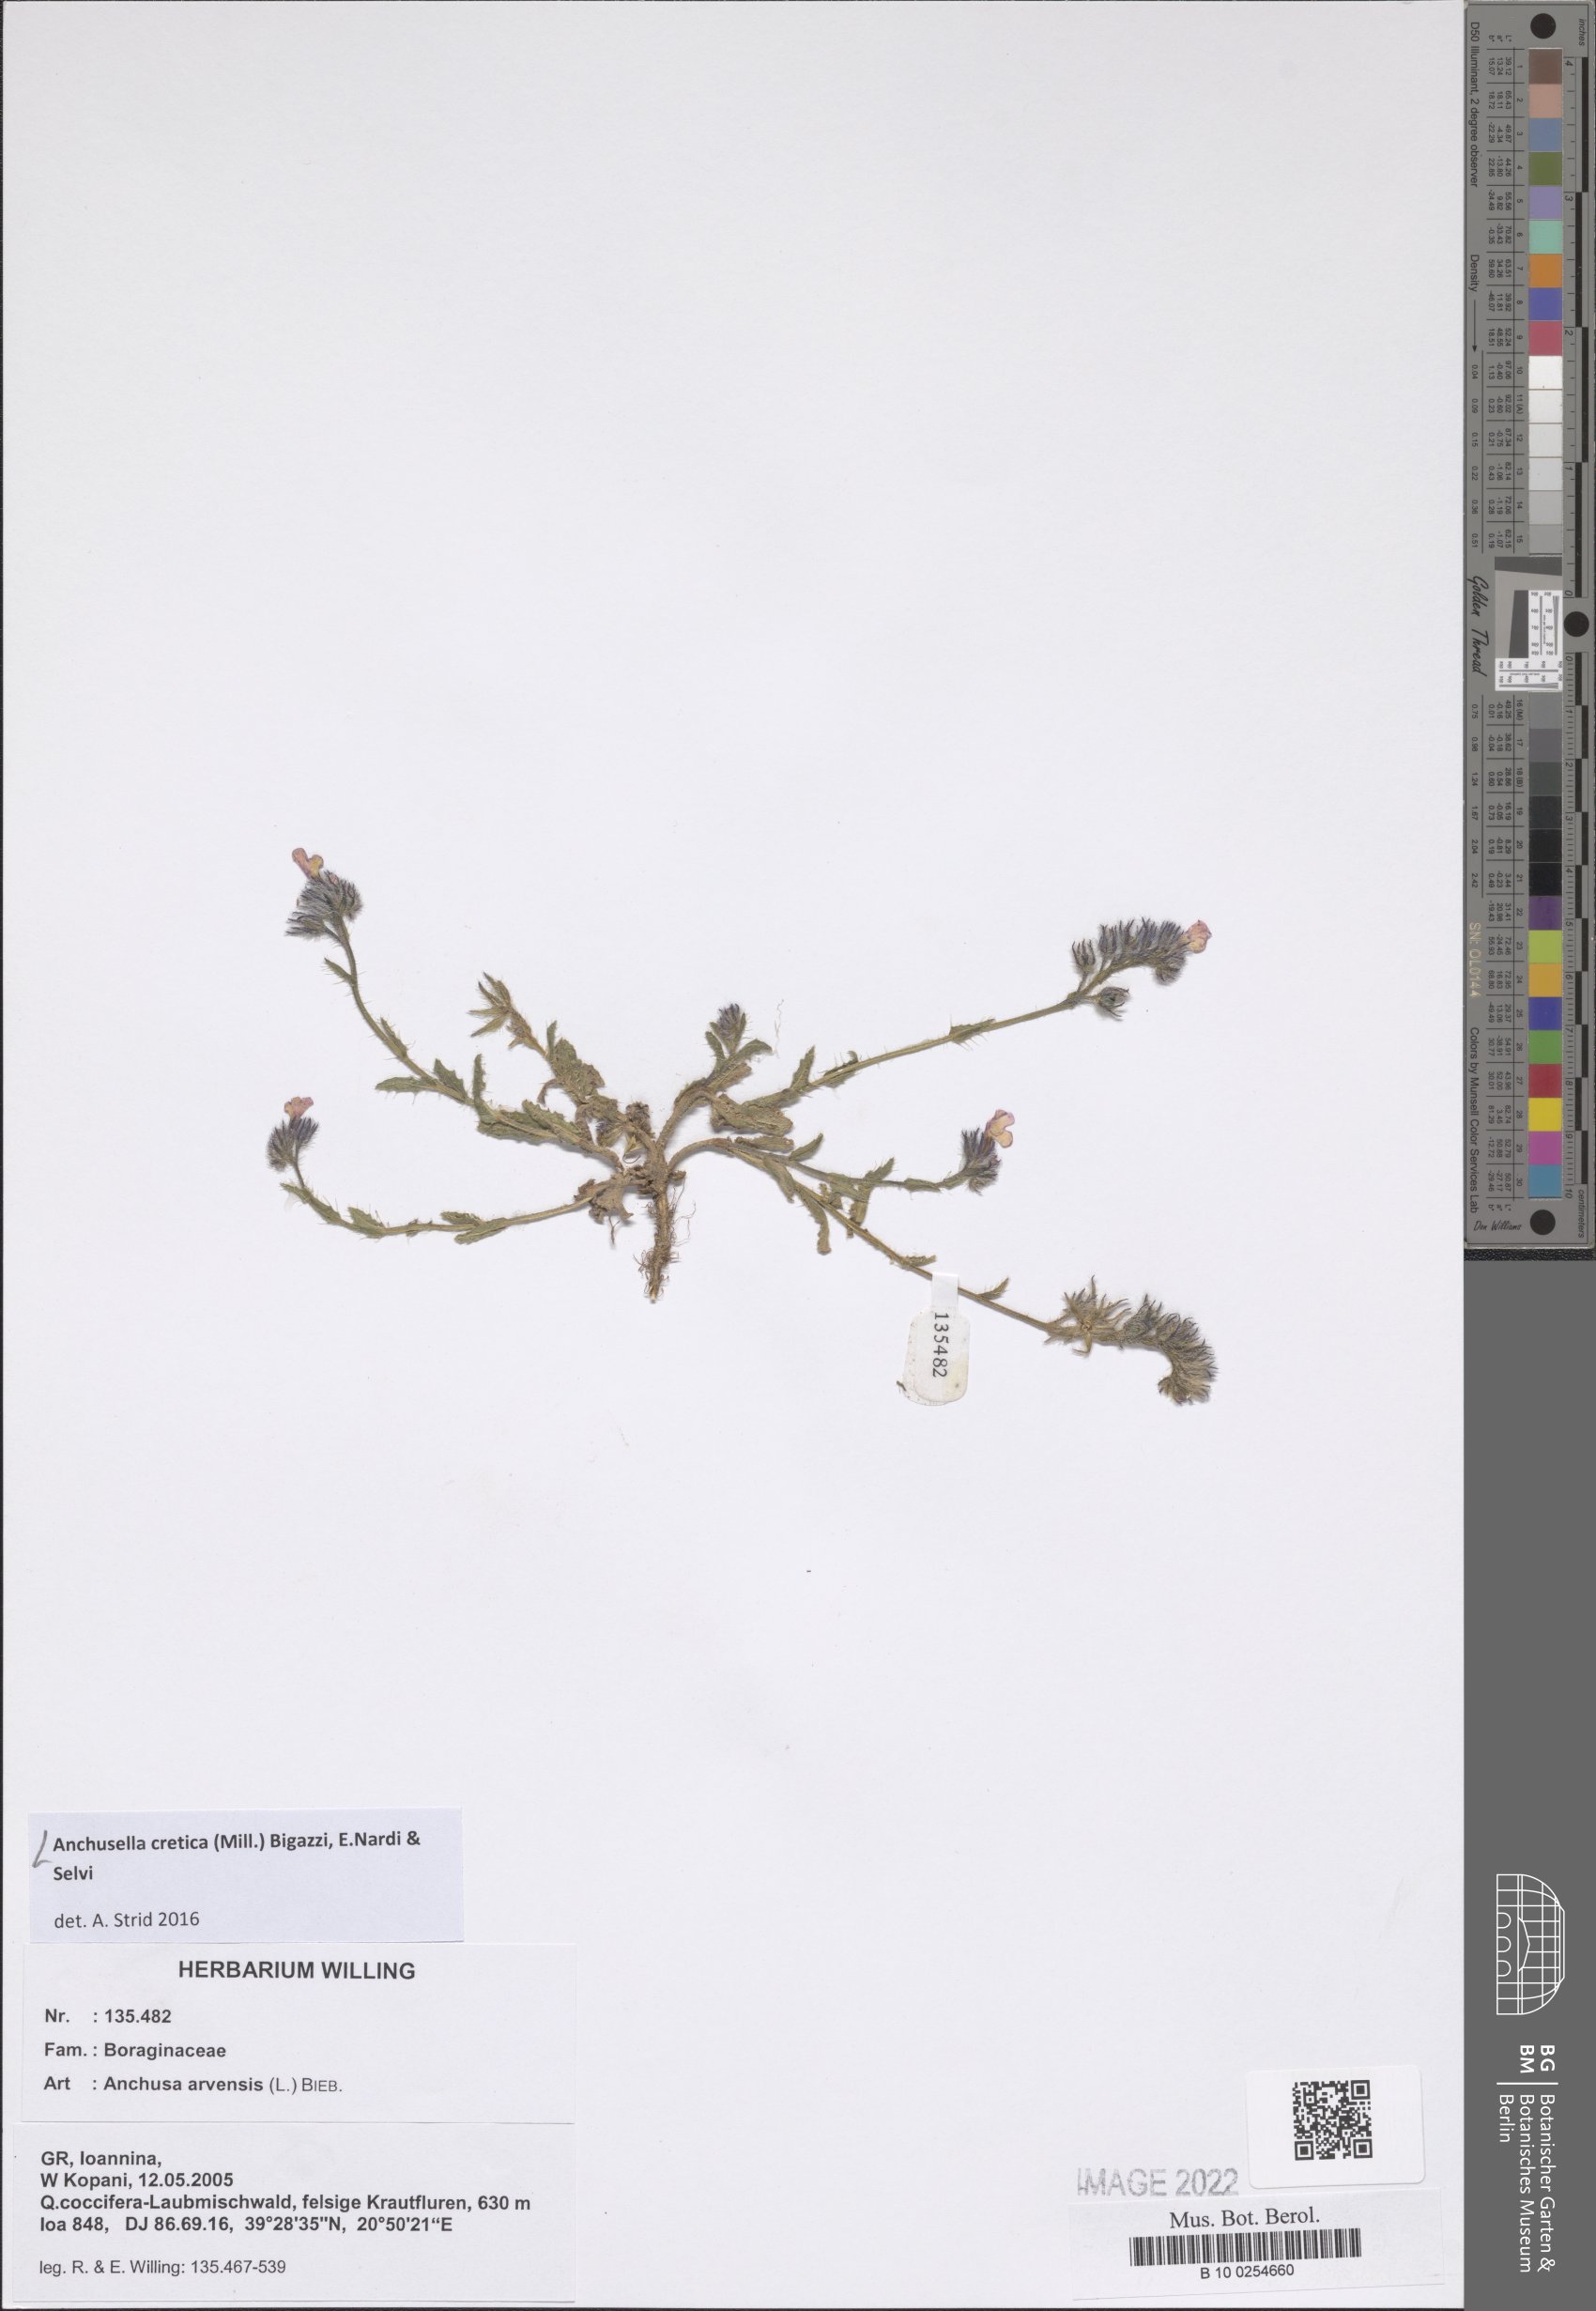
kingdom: Plantae
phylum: Tracheophyta
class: Magnoliopsida
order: Boraginales
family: Boraginaceae
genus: Anchusella
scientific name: Anchusella cretica
